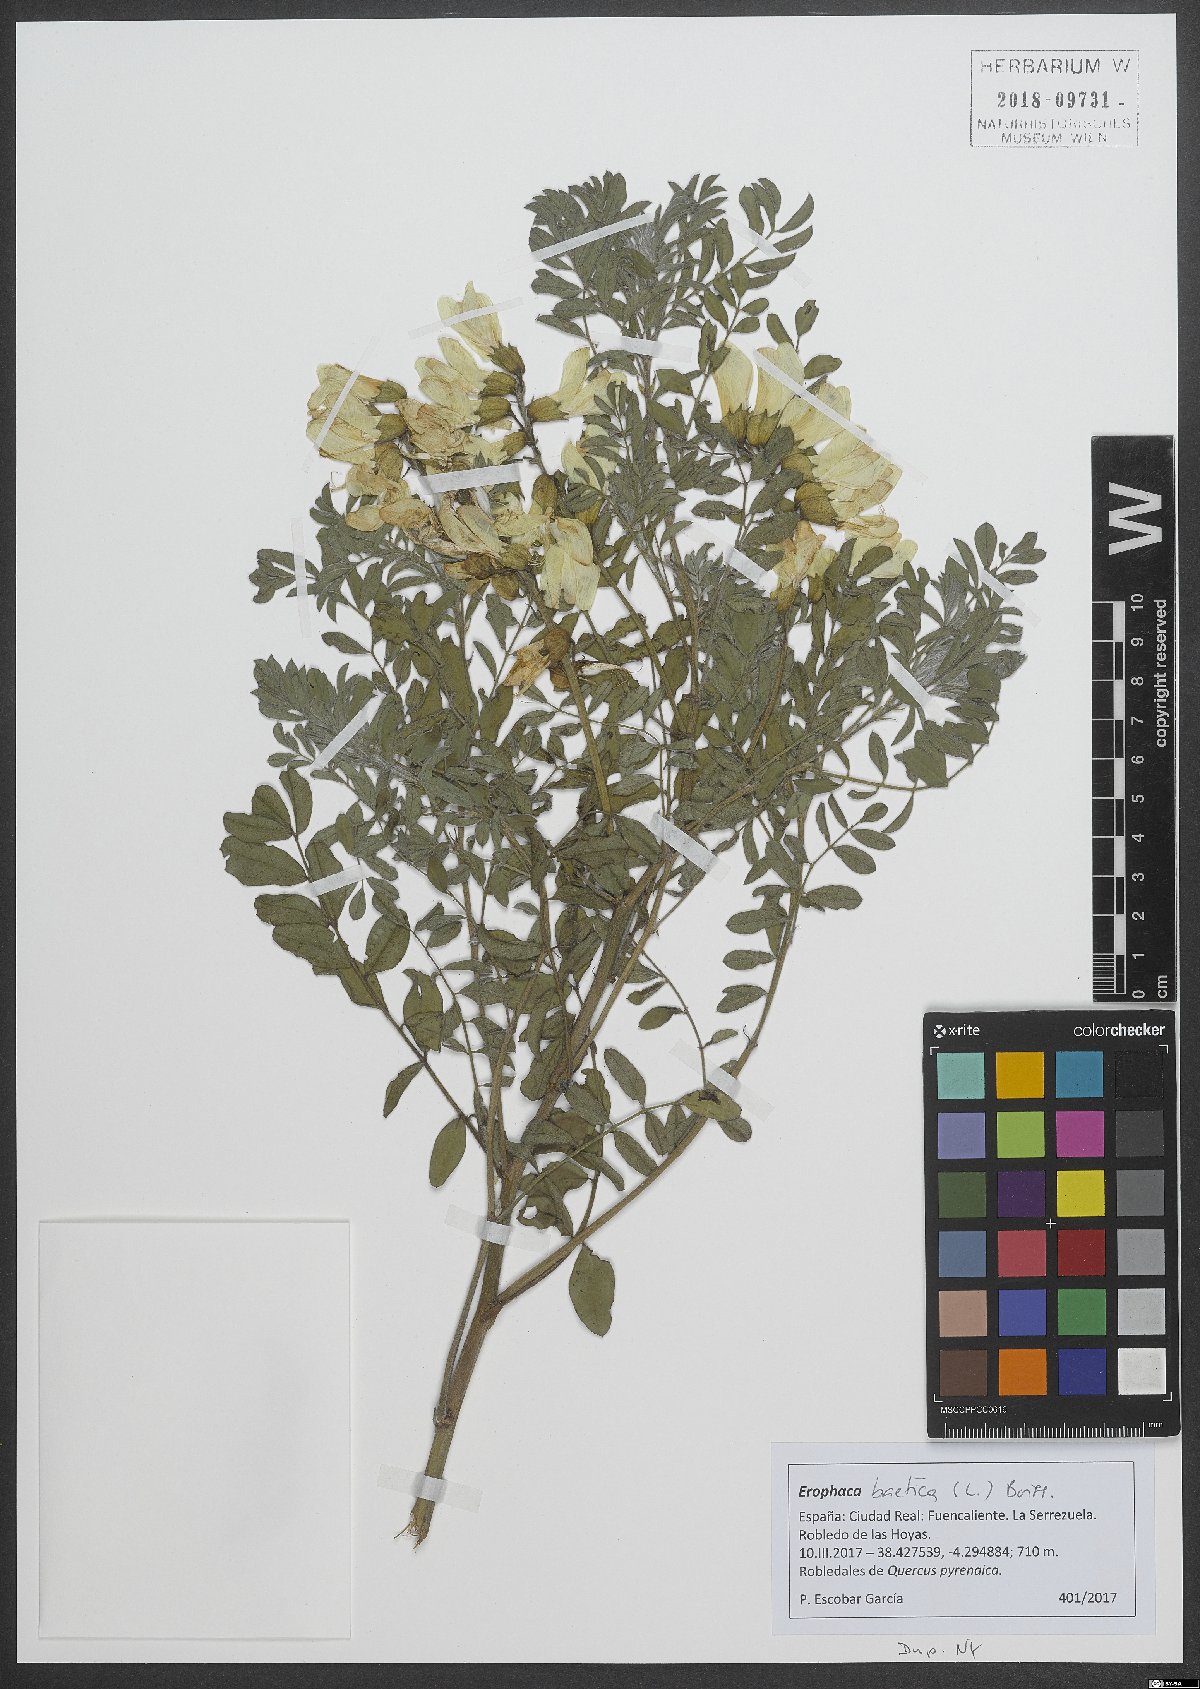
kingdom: Plantae
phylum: Tracheophyta
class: Magnoliopsida
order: Fabales
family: Fabaceae
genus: Erophaca
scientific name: Erophaca baetica
